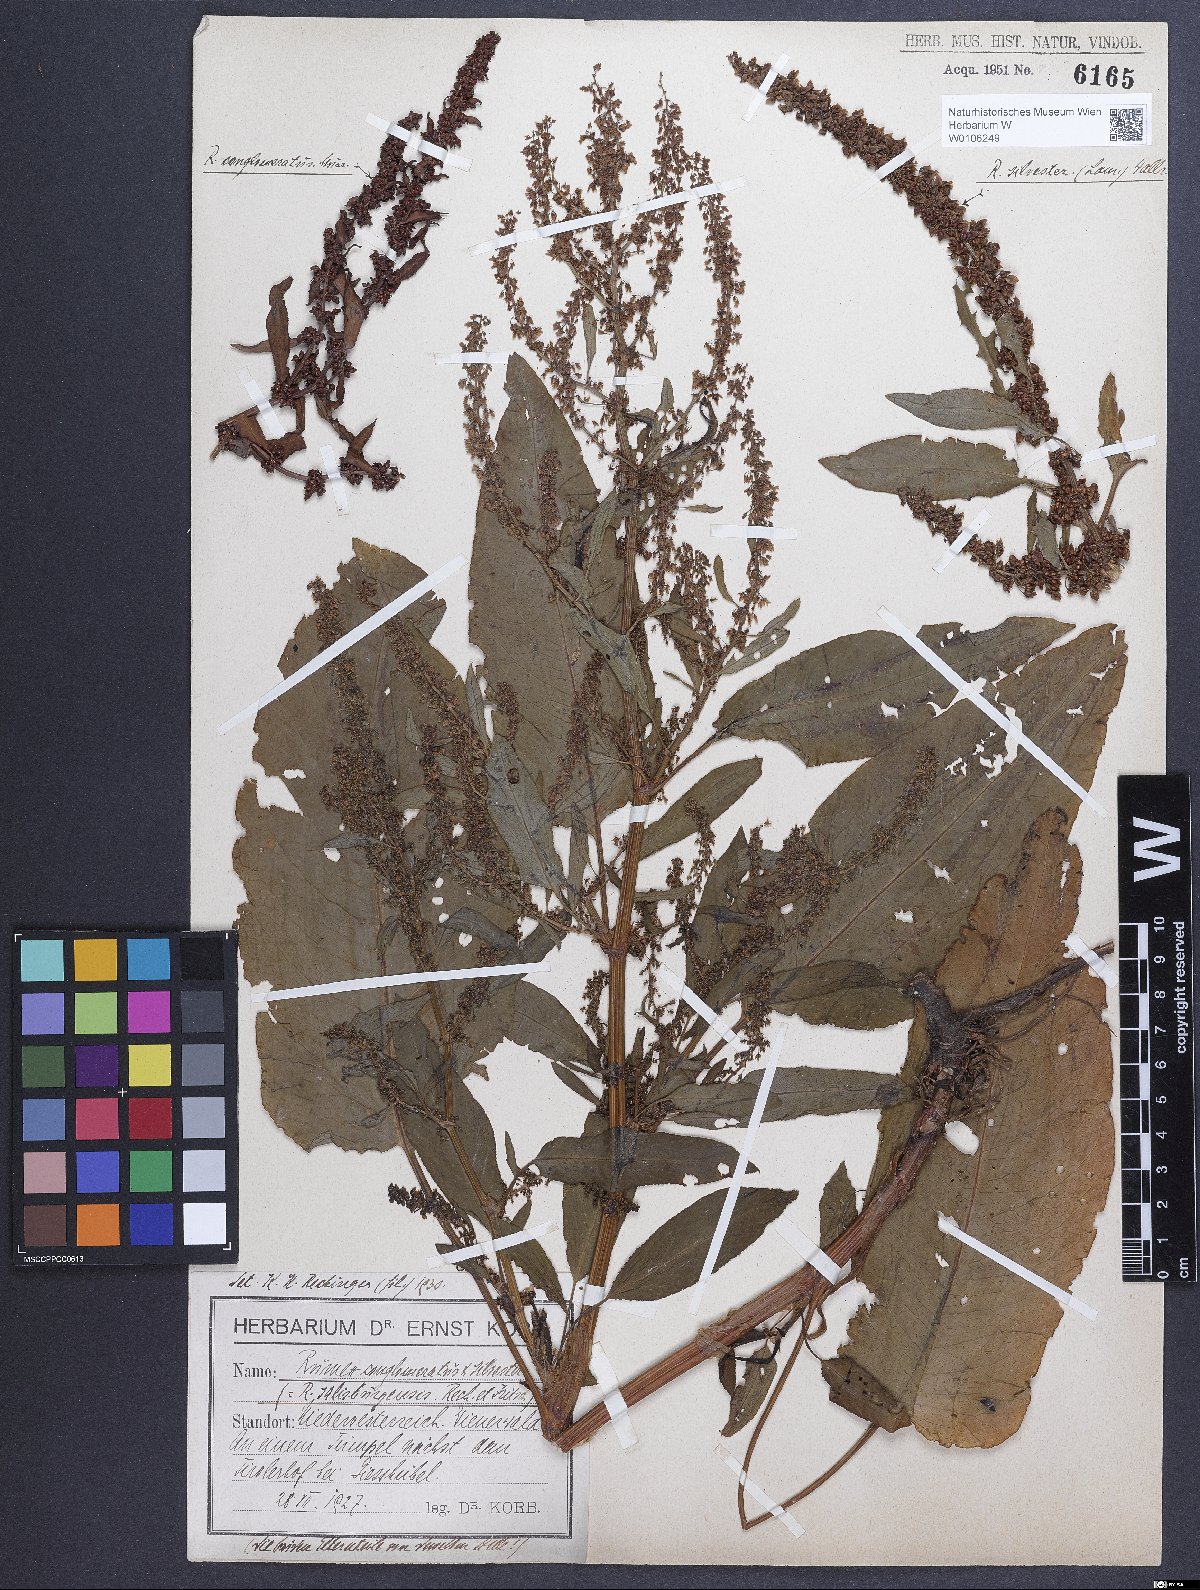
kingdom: Plantae
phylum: Tracheophyta
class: Magnoliopsida
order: Caryophyllales
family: Polygonaceae
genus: Rumex
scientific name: Rumex
